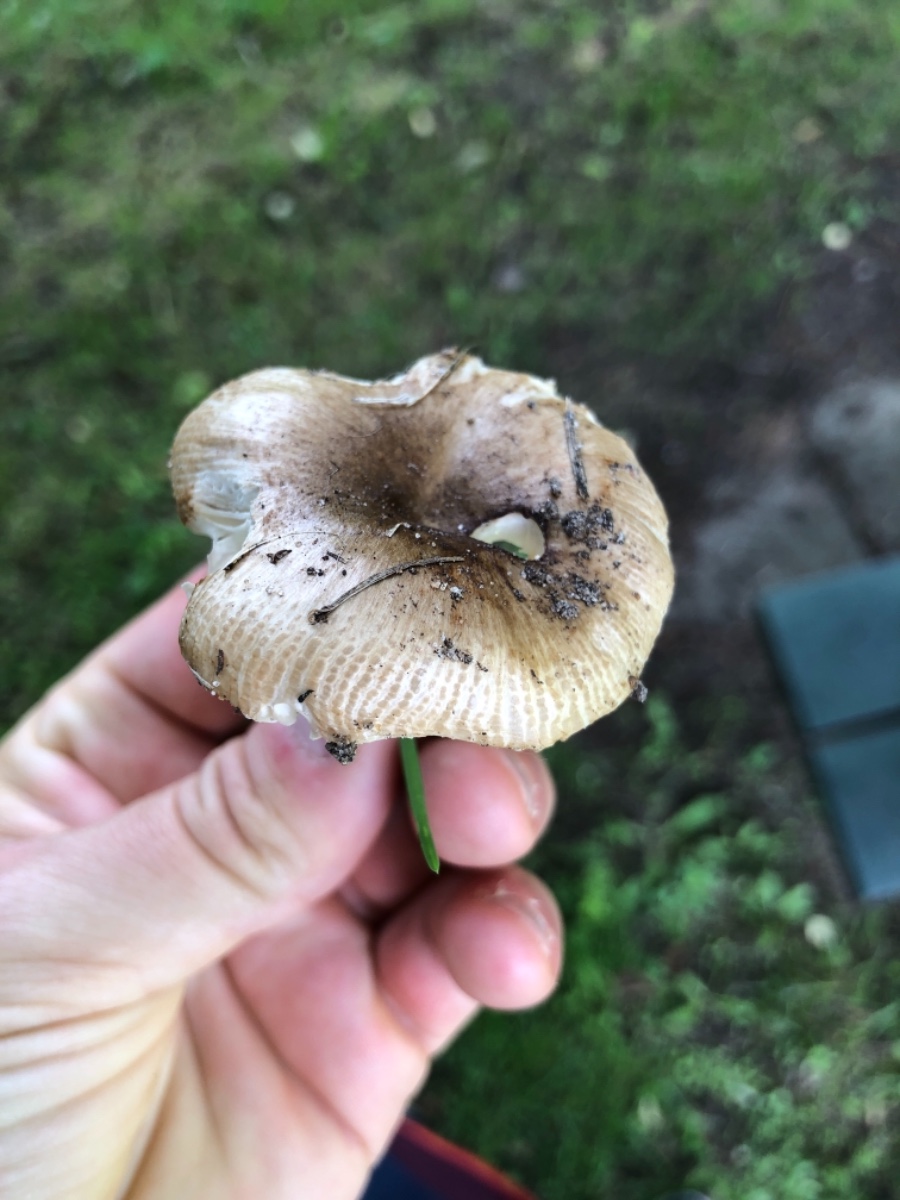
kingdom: Fungi
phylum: Basidiomycota
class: Agaricomycetes
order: Russulales
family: Russulaceae
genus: Russula
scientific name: Russula recondita
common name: mild kam-skørhat
